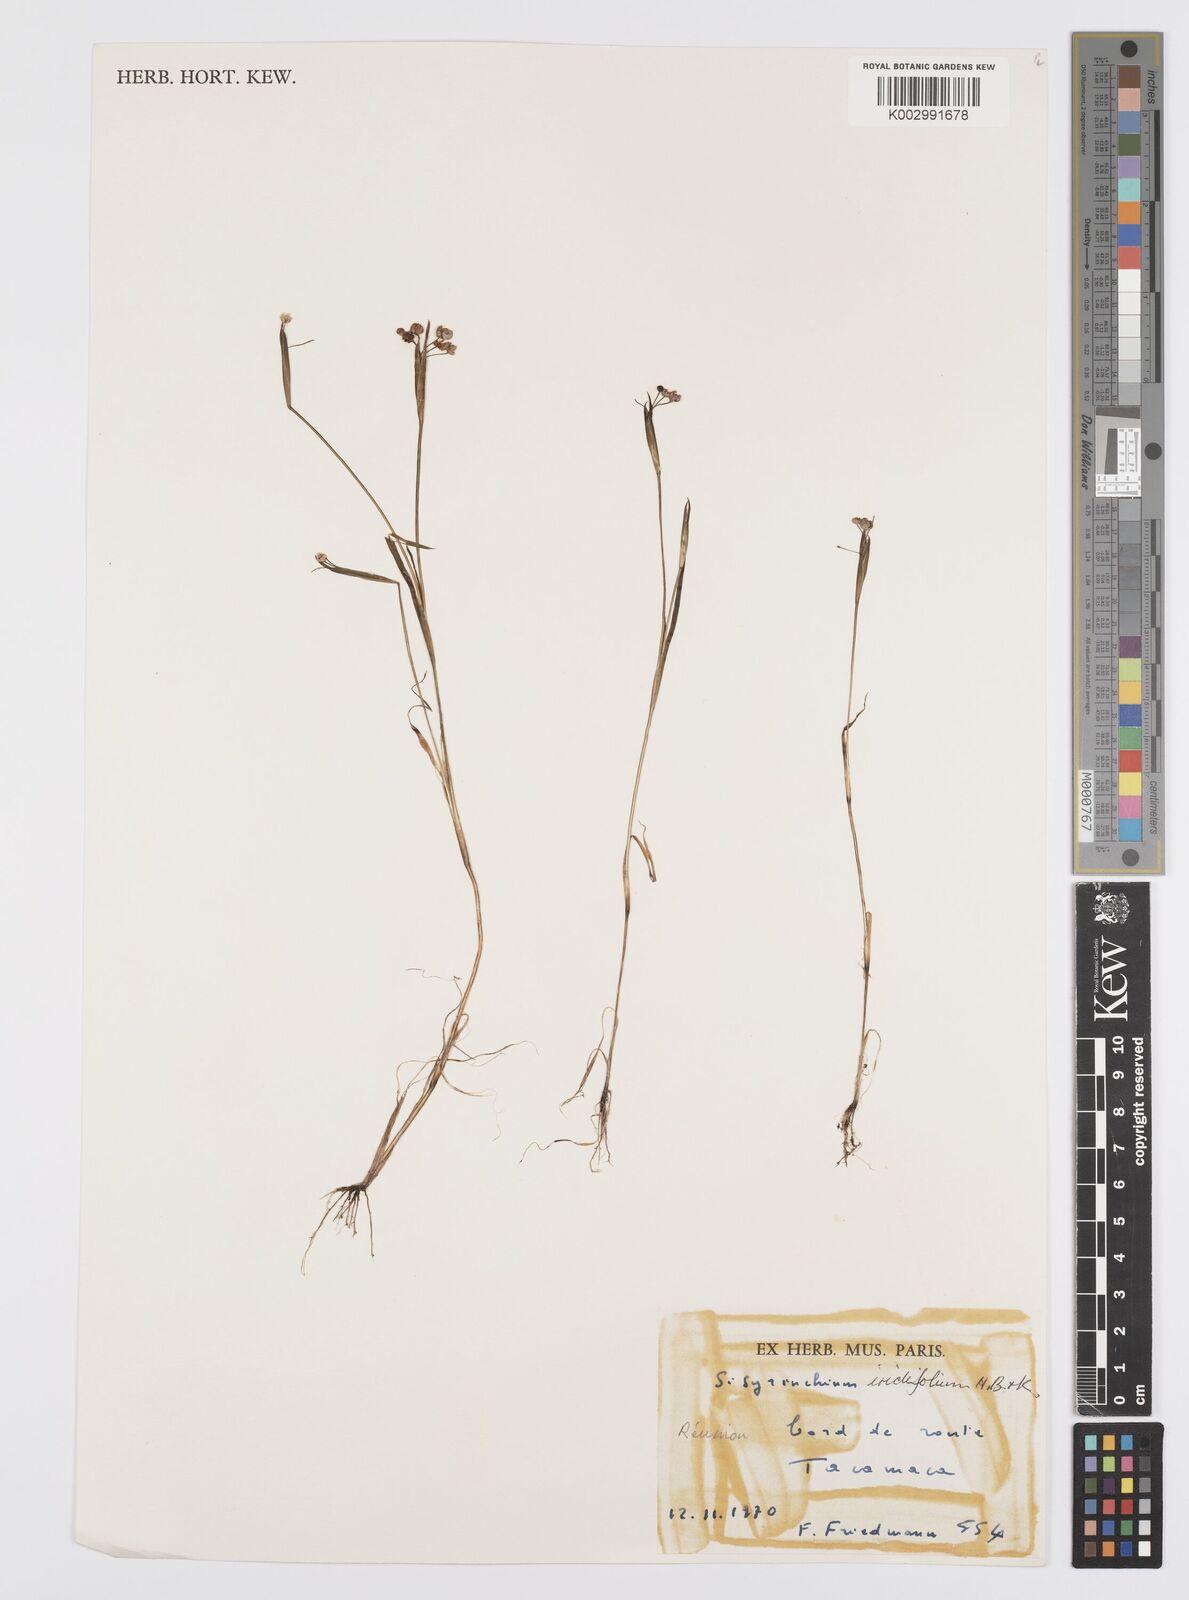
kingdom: Plantae
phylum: Tracheophyta
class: Liliopsida
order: Asparagales
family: Iridaceae
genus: Sisyrinchium
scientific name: Sisyrinchium micranthum
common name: Bermuda pigroot
